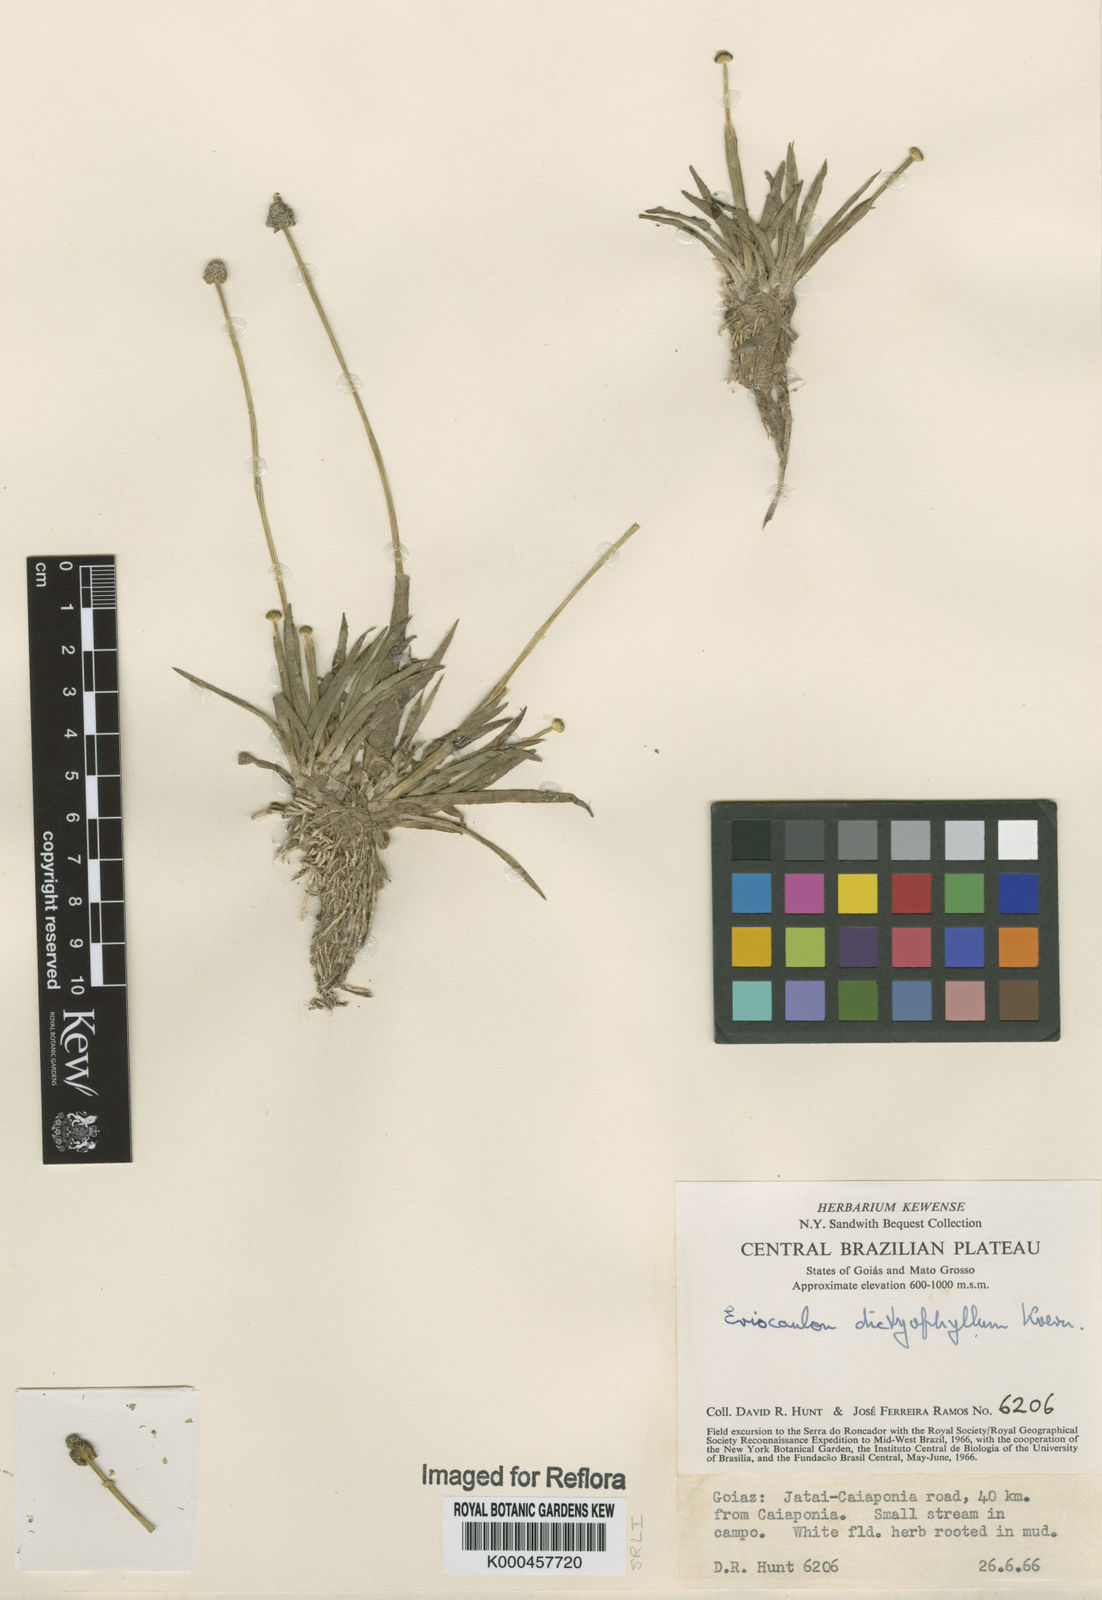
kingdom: Plantae
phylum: Tracheophyta
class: Liliopsida
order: Poales
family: Eriocaulaceae
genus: Eriocaulon
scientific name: Eriocaulon
